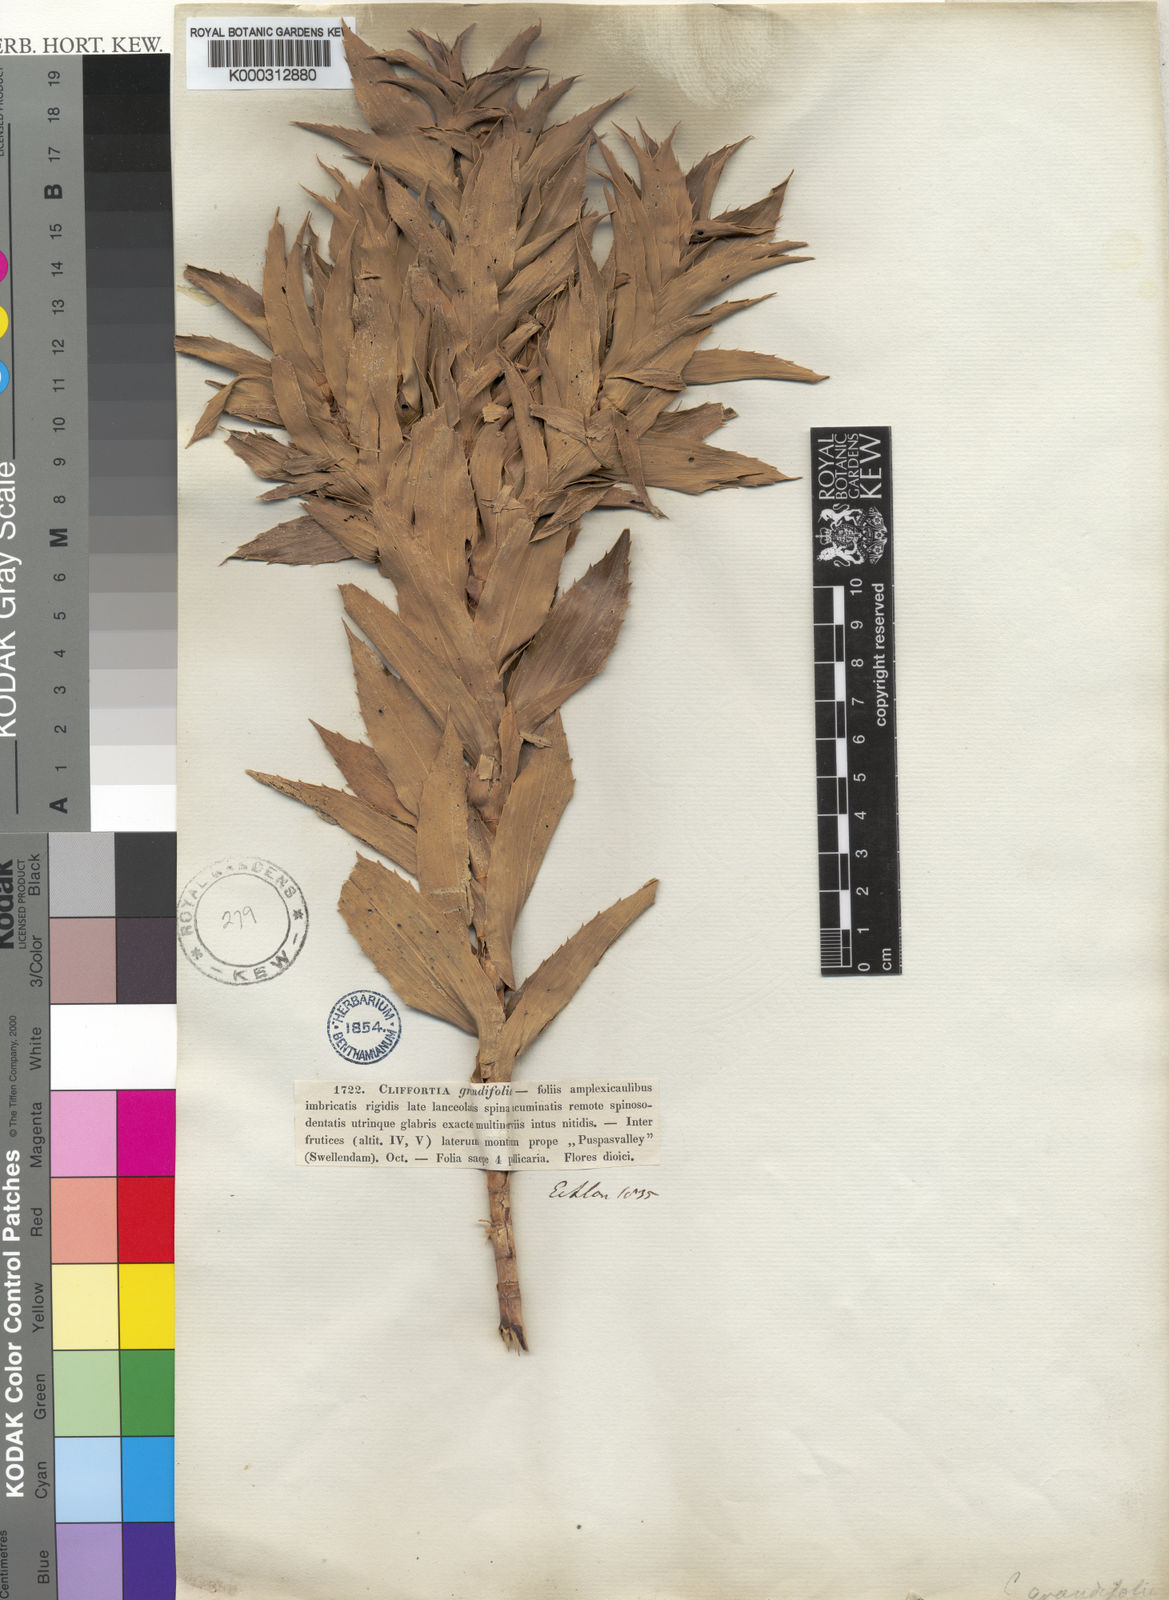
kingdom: Plantae
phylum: Tracheophyta
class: Magnoliopsida
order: Rosales
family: Rosaceae
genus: Cliffortia
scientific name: Cliffortia grandifolia
